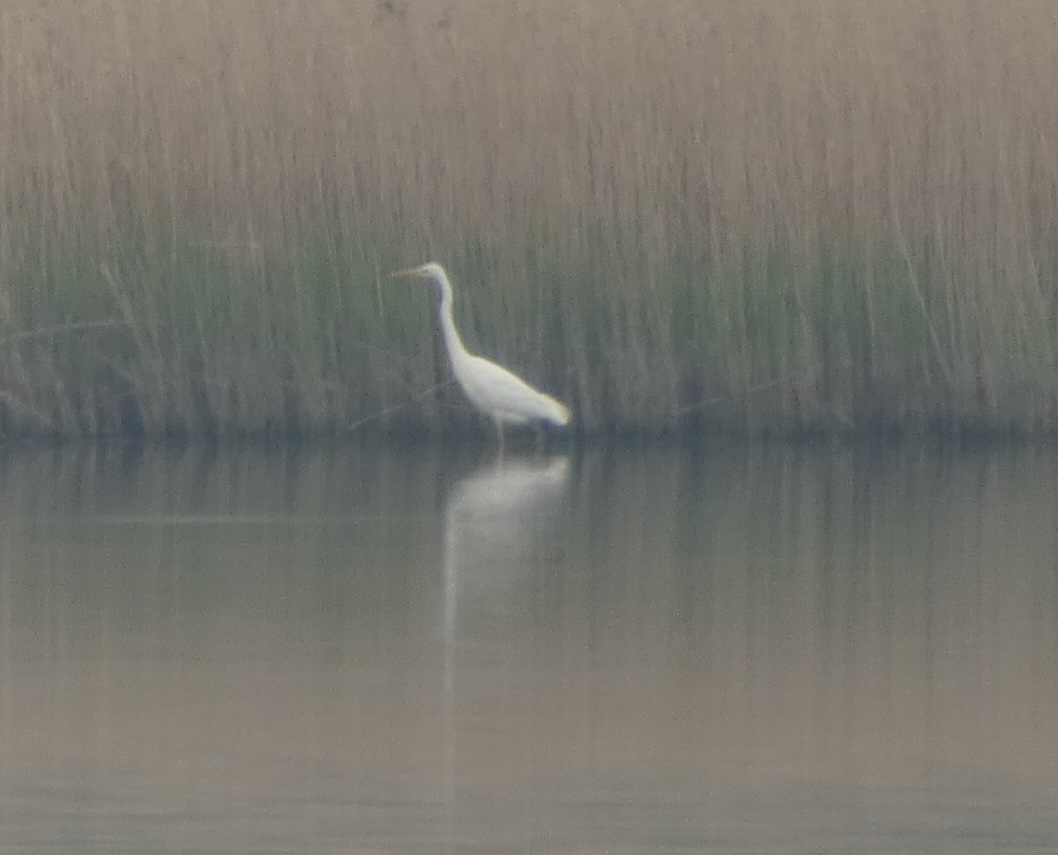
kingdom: Animalia
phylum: Chordata
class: Aves
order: Pelecaniformes
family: Ardeidae
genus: Ardea
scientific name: Ardea alba
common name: Sølvhejre
